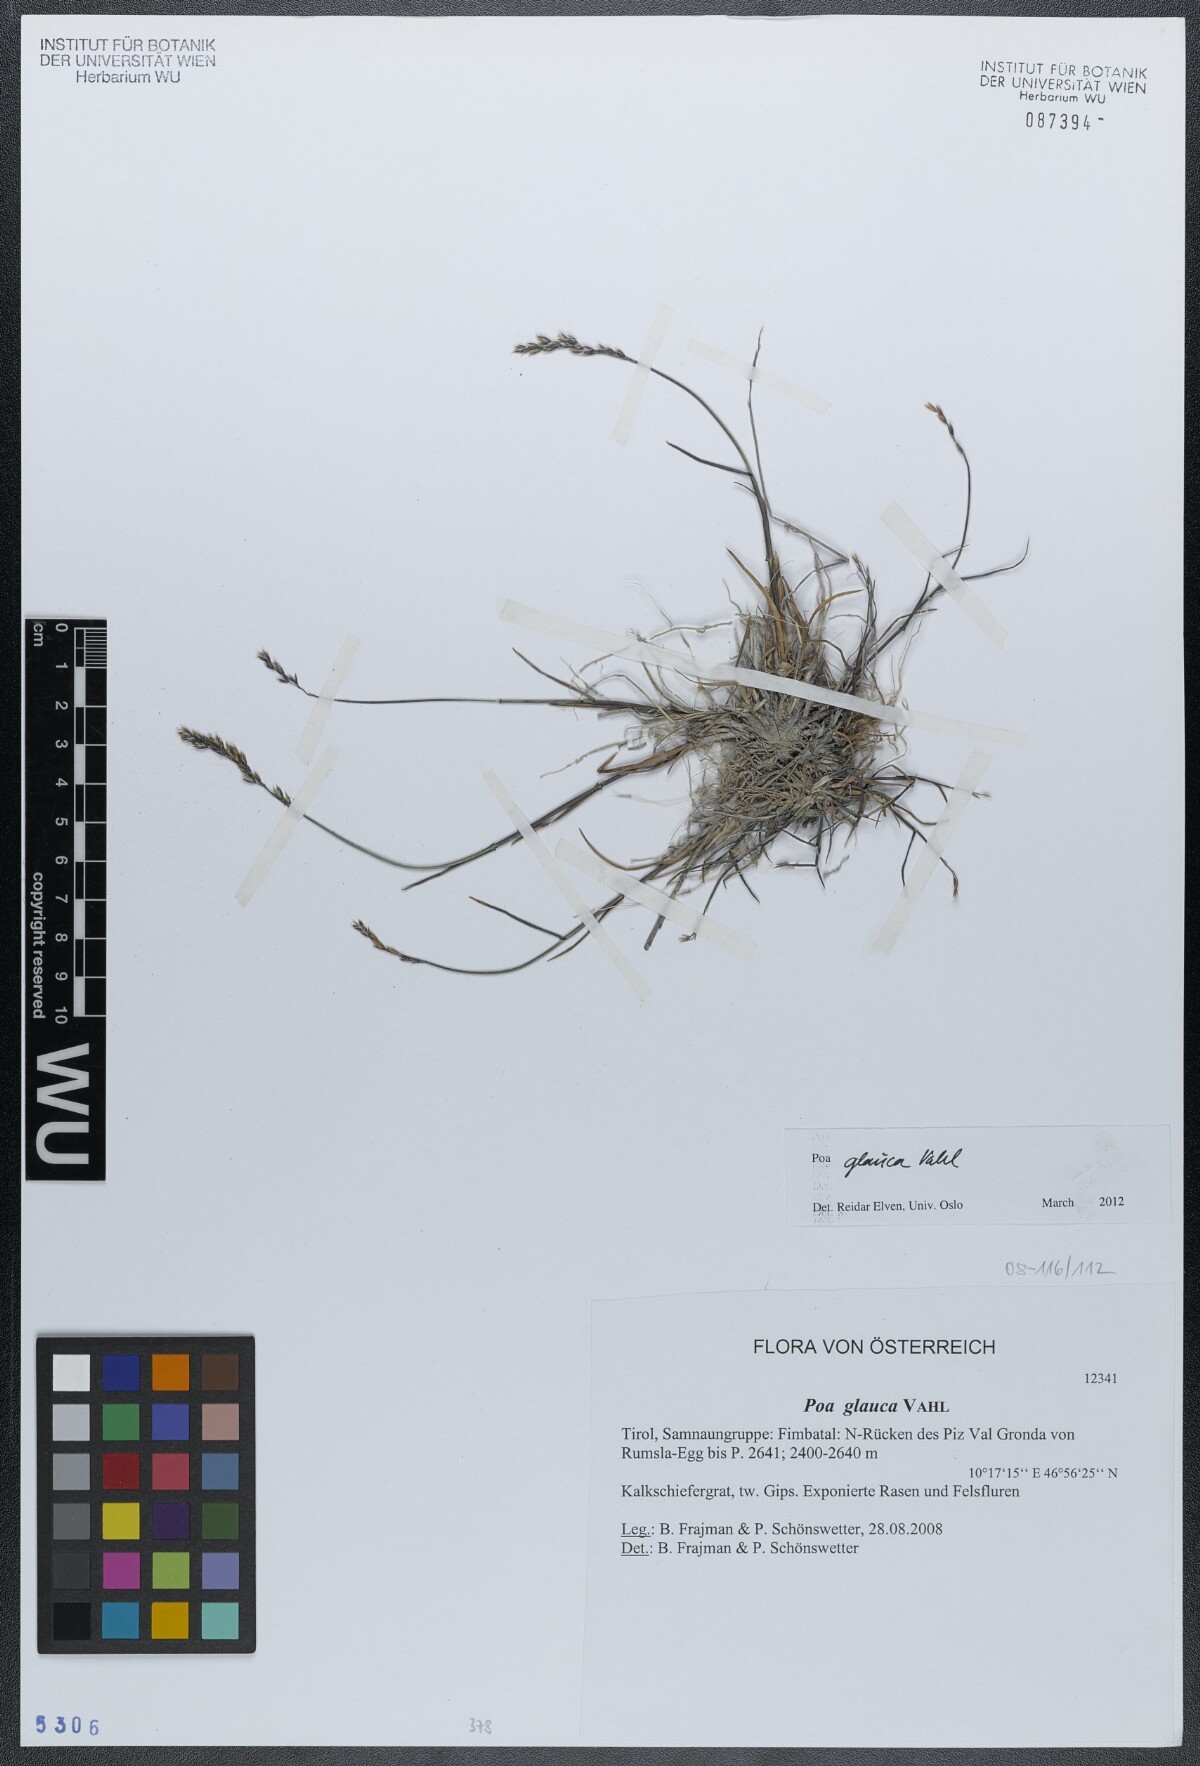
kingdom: Plantae
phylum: Tracheophyta
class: Liliopsida
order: Poales
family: Poaceae
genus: Poa
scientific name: Poa glauca
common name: Glaucous bluegrass
